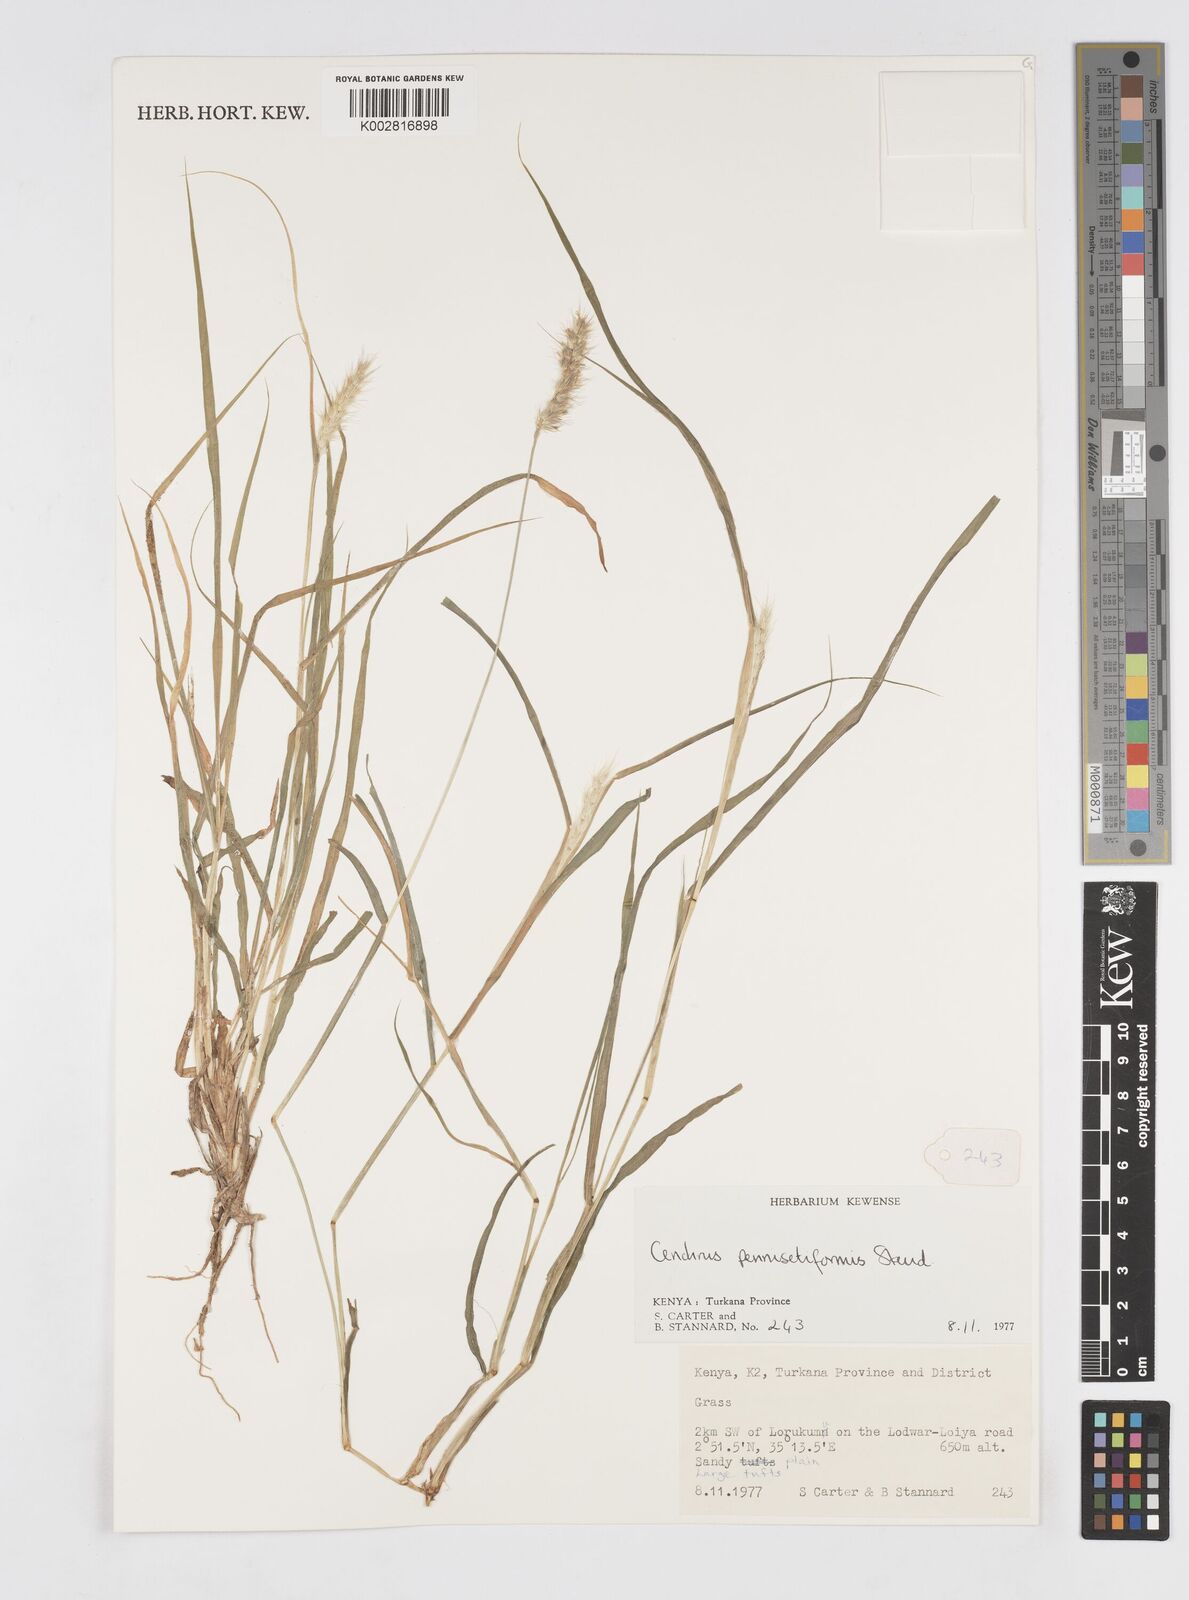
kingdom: Plantae
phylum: Tracheophyta
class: Liliopsida
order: Poales
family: Poaceae
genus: Cenchrus
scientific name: Cenchrus pennisetiformis
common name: Cloncurry
